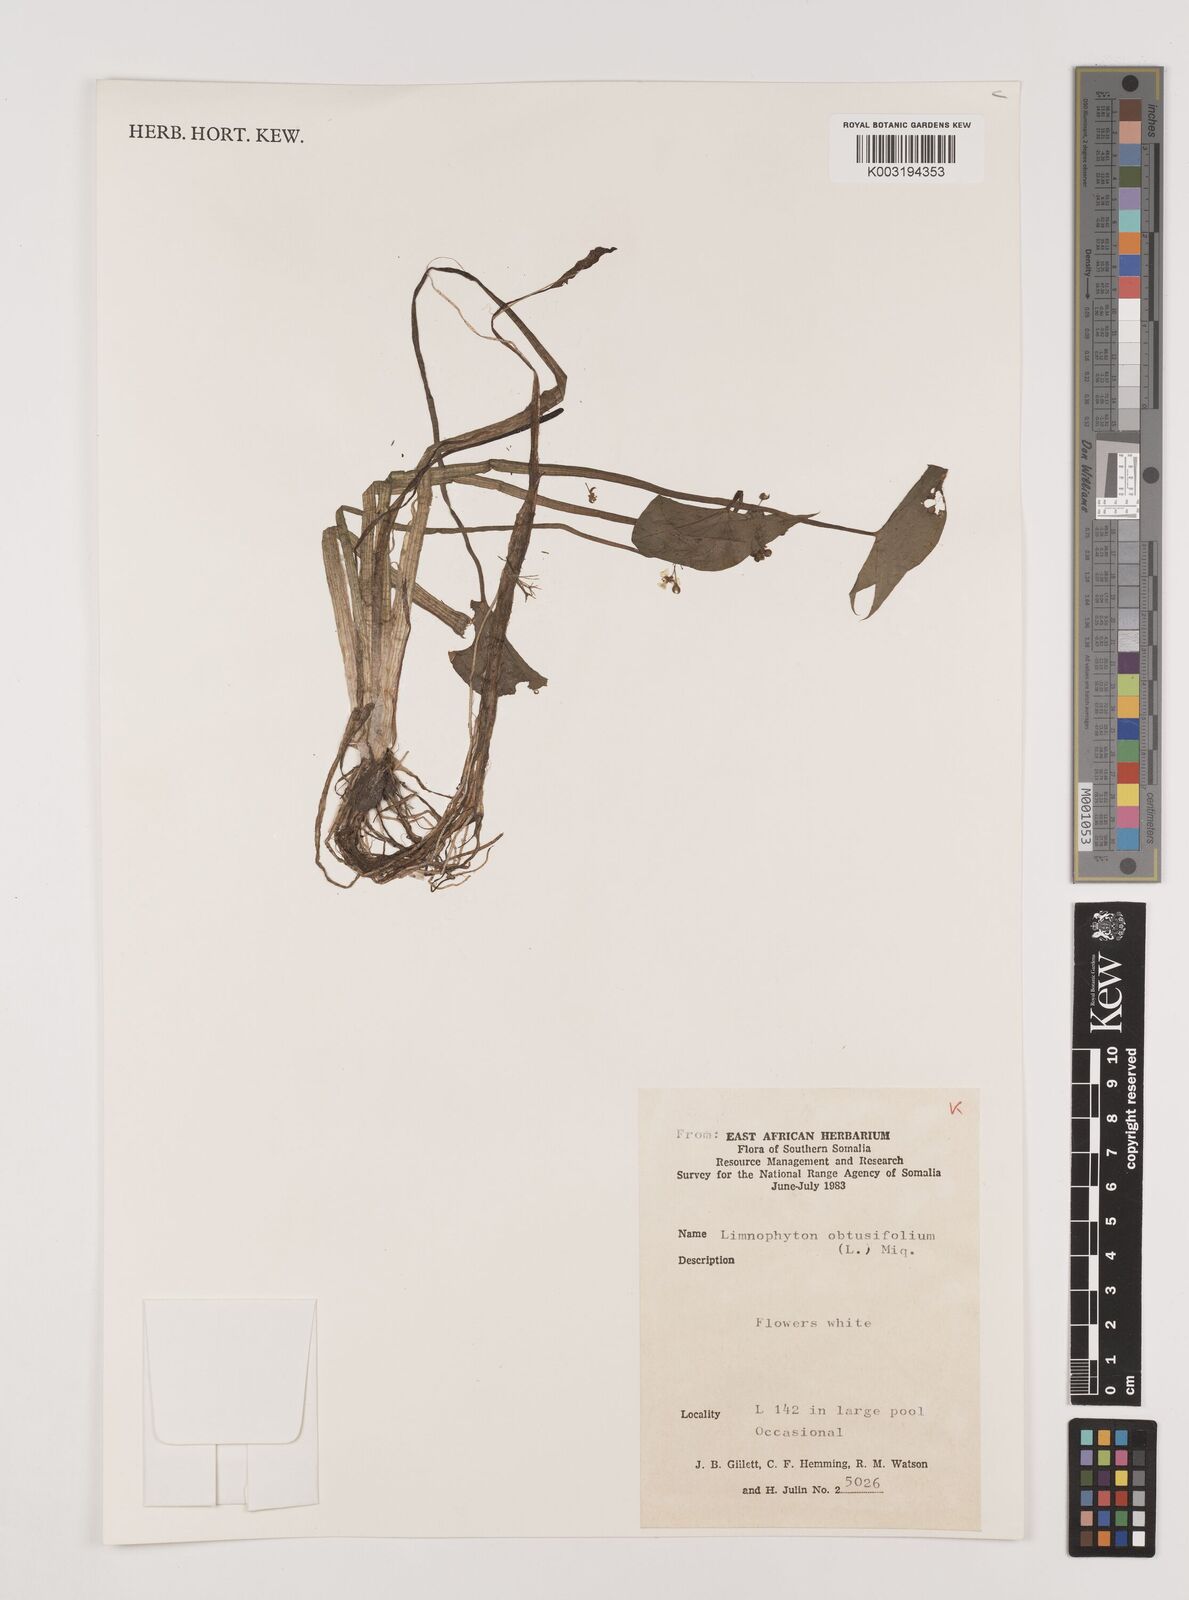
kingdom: Plantae
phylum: Tracheophyta
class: Liliopsida
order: Alismatales
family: Alismataceae
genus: Limnophyton
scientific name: Limnophyton obtusifolium
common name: Arrow head
